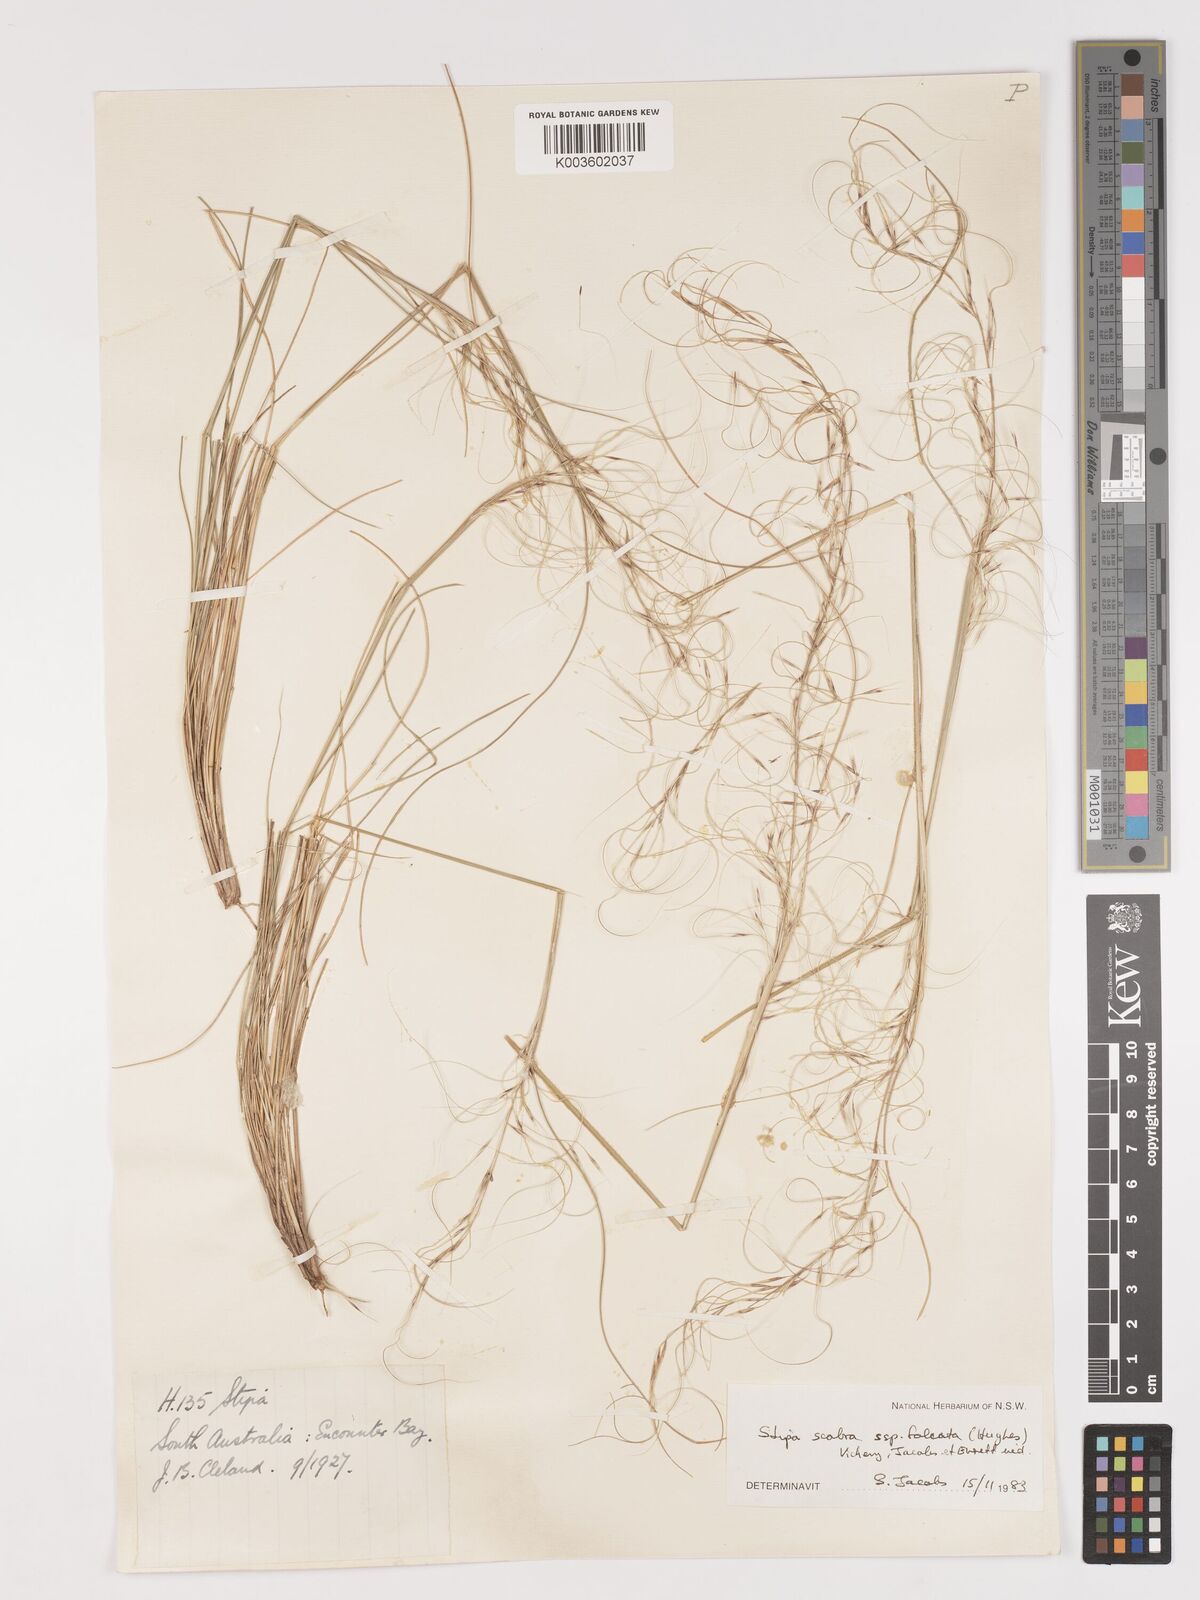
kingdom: Plantae
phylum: Tracheophyta
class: Liliopsida
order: Poales
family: Poaceae
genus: Austrostipa
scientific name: Austrostipa scabra
